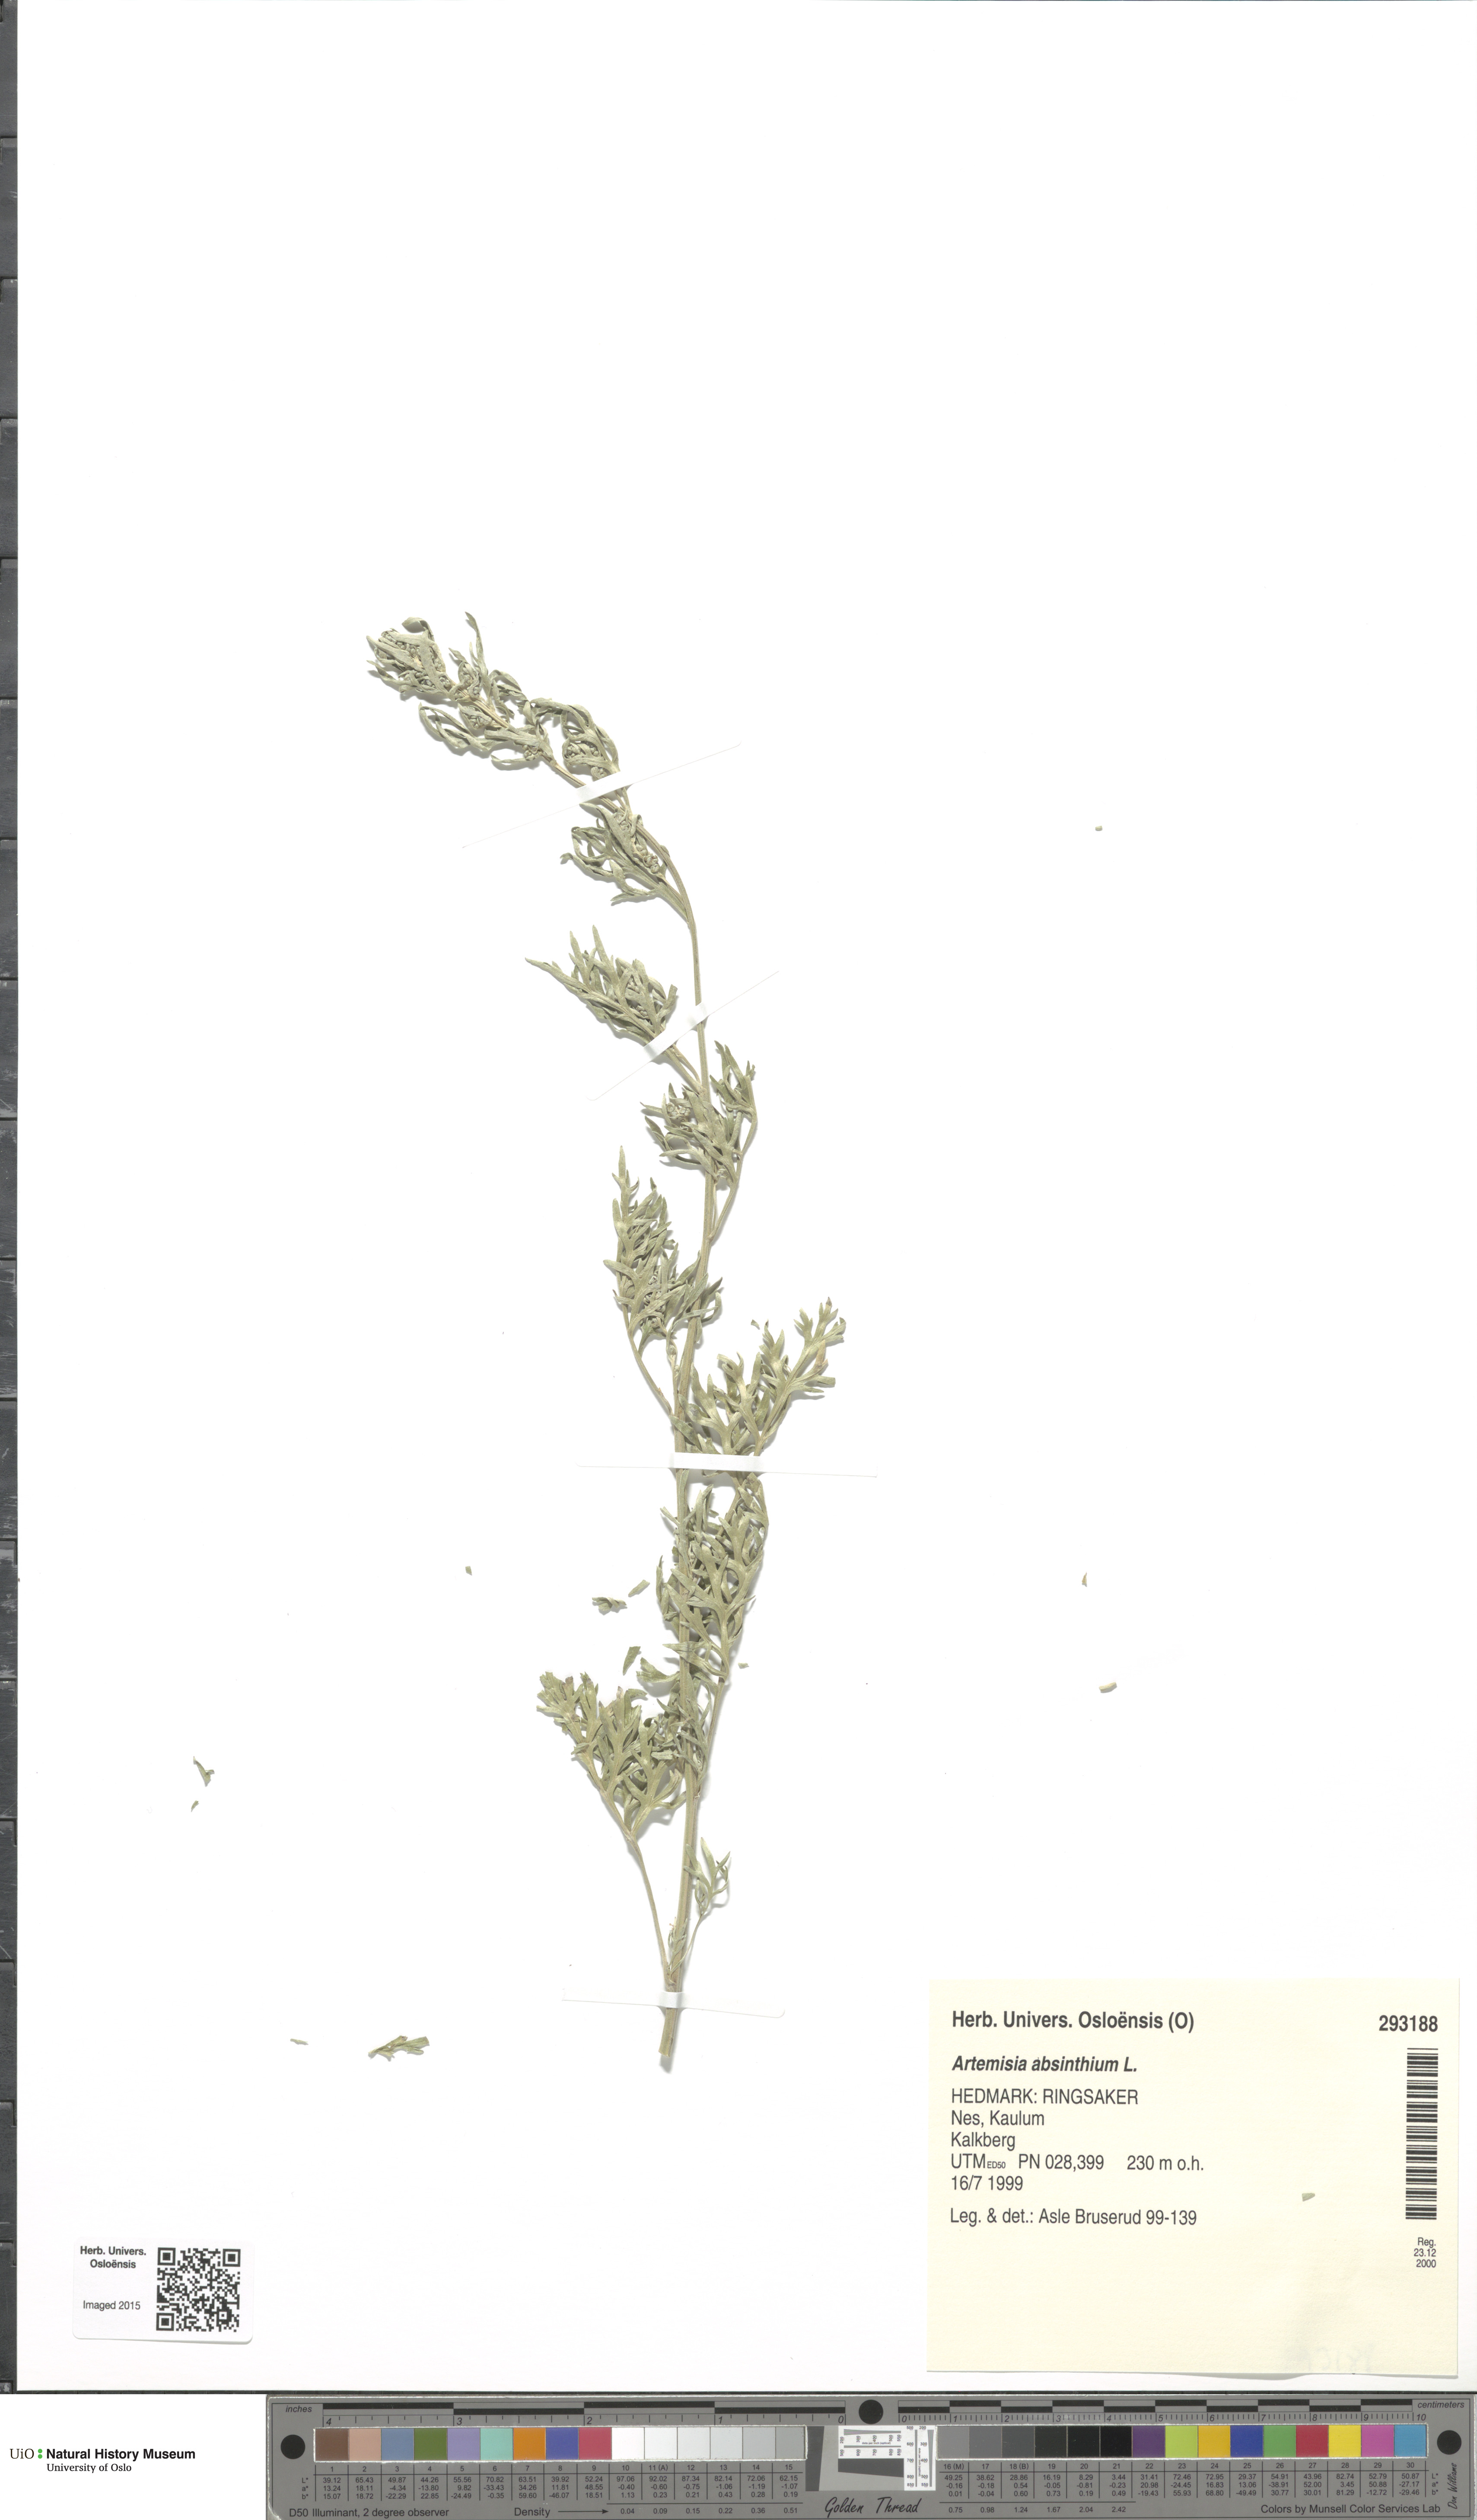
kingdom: Plantae
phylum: Tracheophyta
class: Magnoliopsida
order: Asterales
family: Asteraceae
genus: Artemisia
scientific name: Artemisia absinthium
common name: Wormwood
